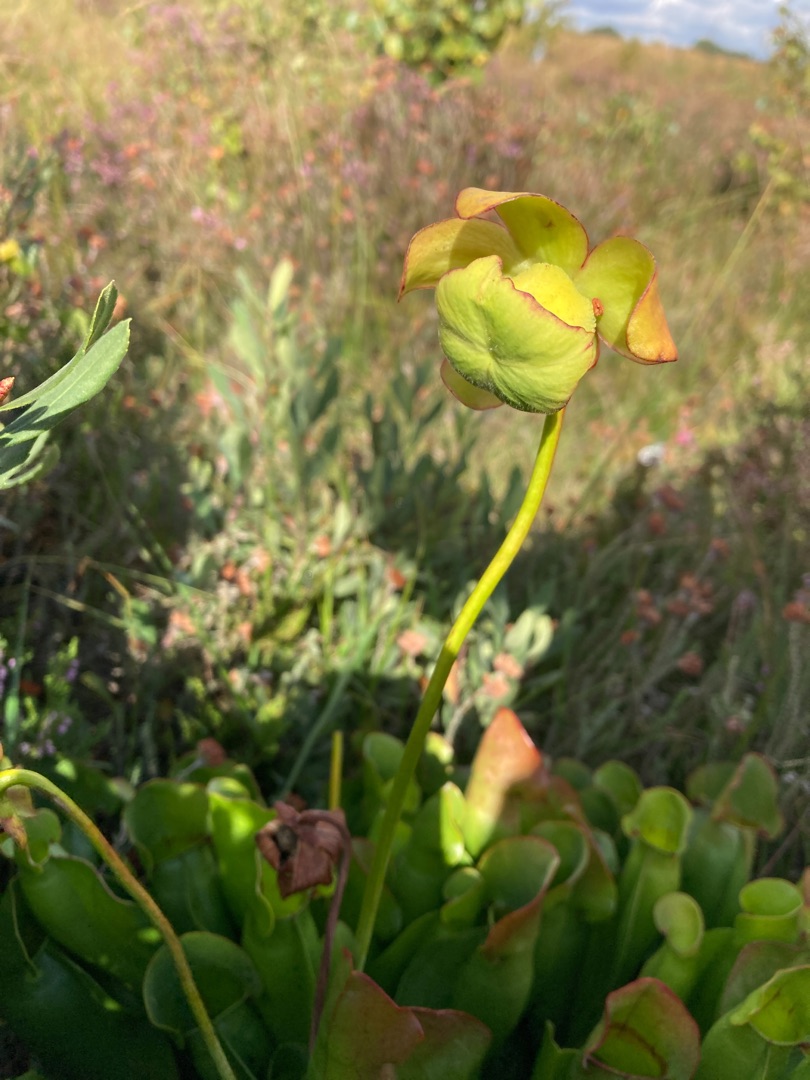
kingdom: Plantae
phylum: Tracheophyta
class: Magnoliopsida
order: Ericales
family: Sarraceniaceae
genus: Sarracenia
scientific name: Sarracenia purpurea
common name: Trompetblad
